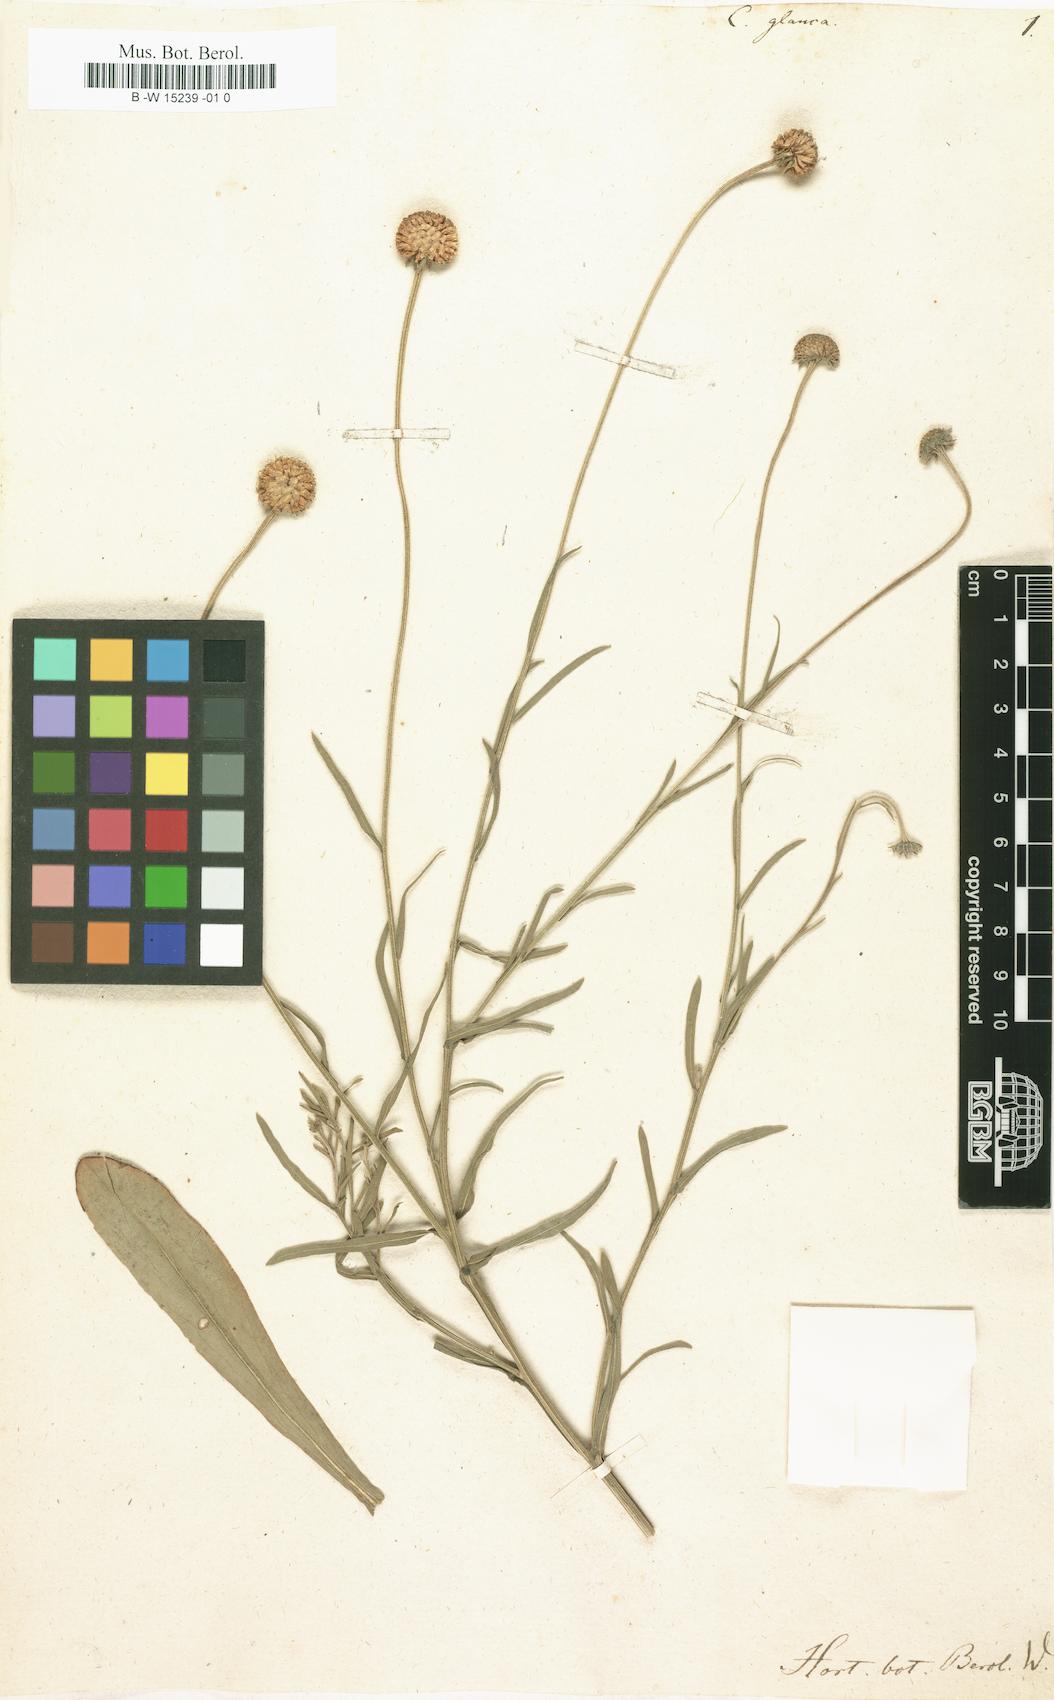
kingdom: Plantae
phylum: Tracheophyta
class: Magnoliopsida
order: Asterales
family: Asteraceae
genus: Helenium
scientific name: Helenium glaucum
